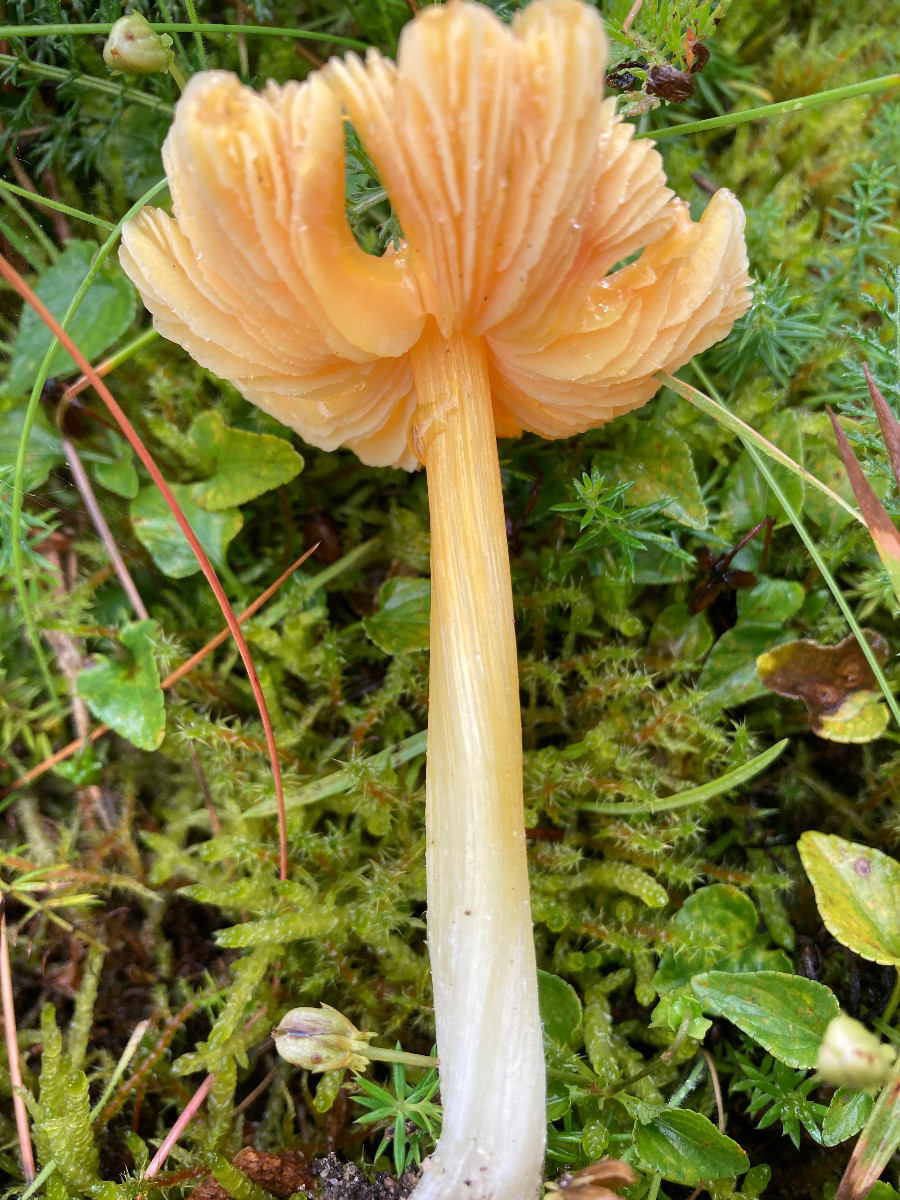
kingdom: Fungi
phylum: Basidiomycota
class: Agaricomycetes
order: Agaricales
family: Hygrophoraceae
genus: Hygrocybe
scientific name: Hygrocybe acutoconica
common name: spidspuklet vokshat
